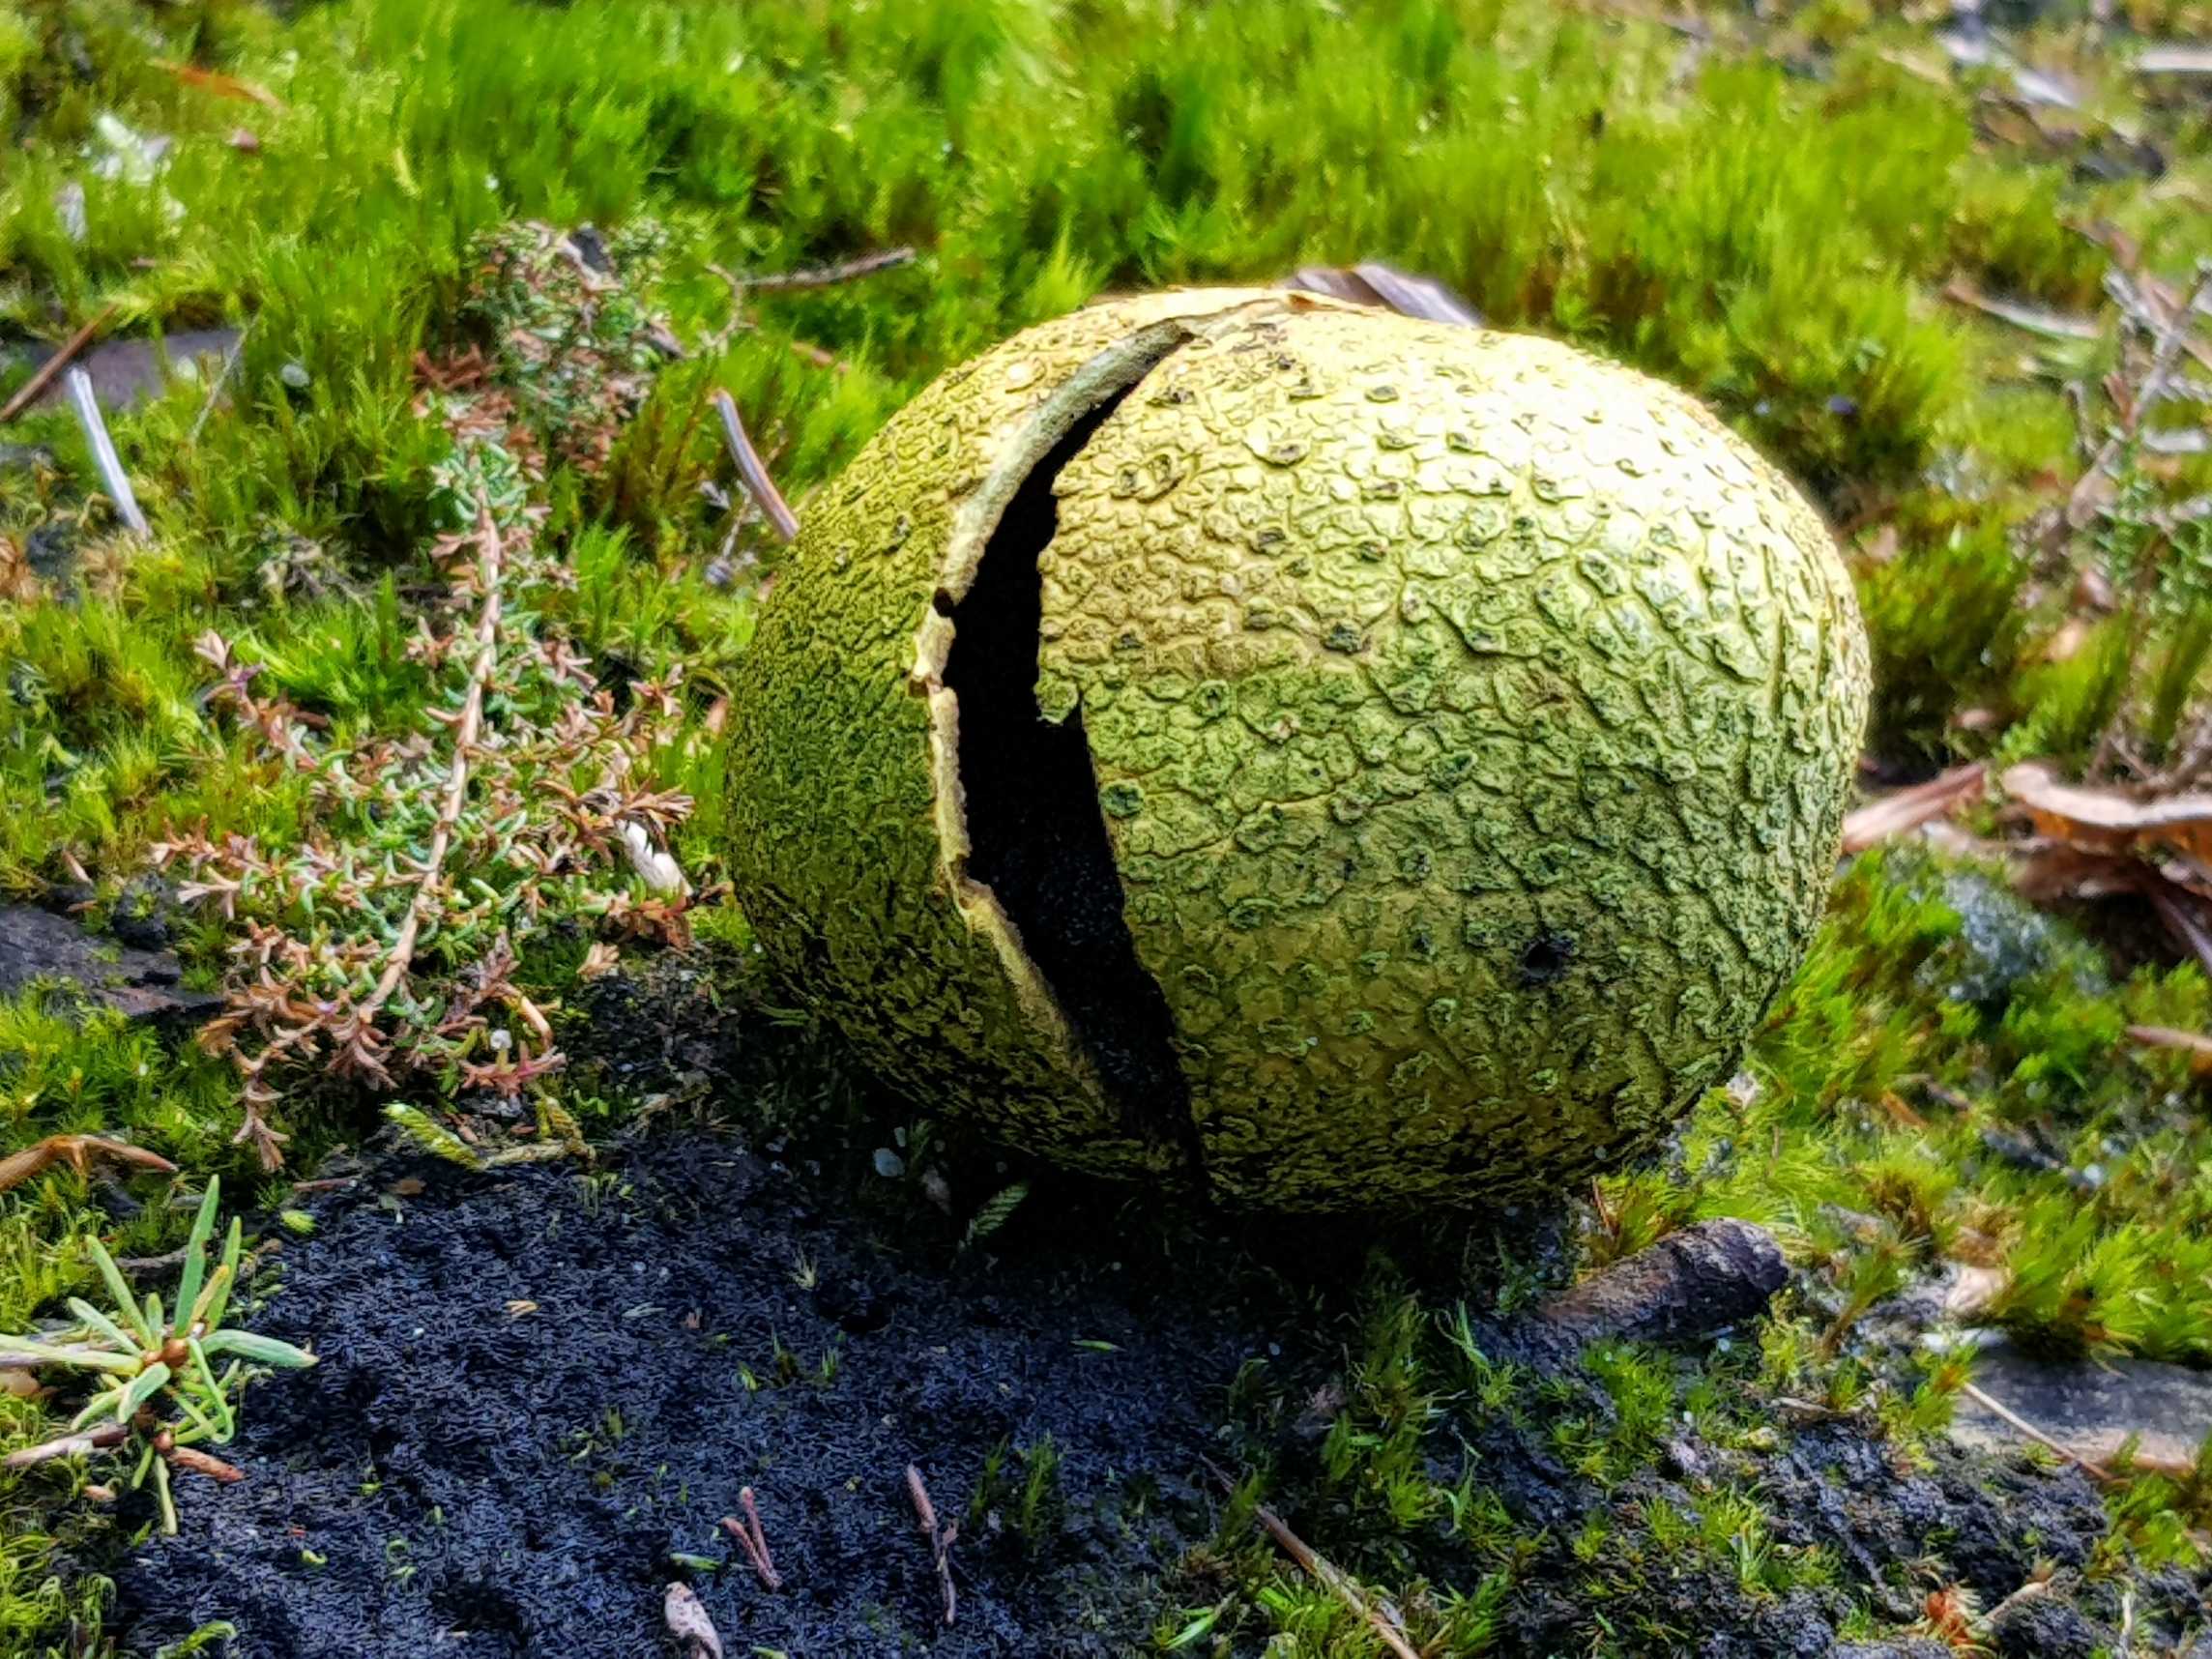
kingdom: Fungi
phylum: Basidiomycota
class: Agaricomycetes
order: Boletales
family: Sclerodermataceae
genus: Scleroderma
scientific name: Scleroderma citrinum
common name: almindelig bruskbold
